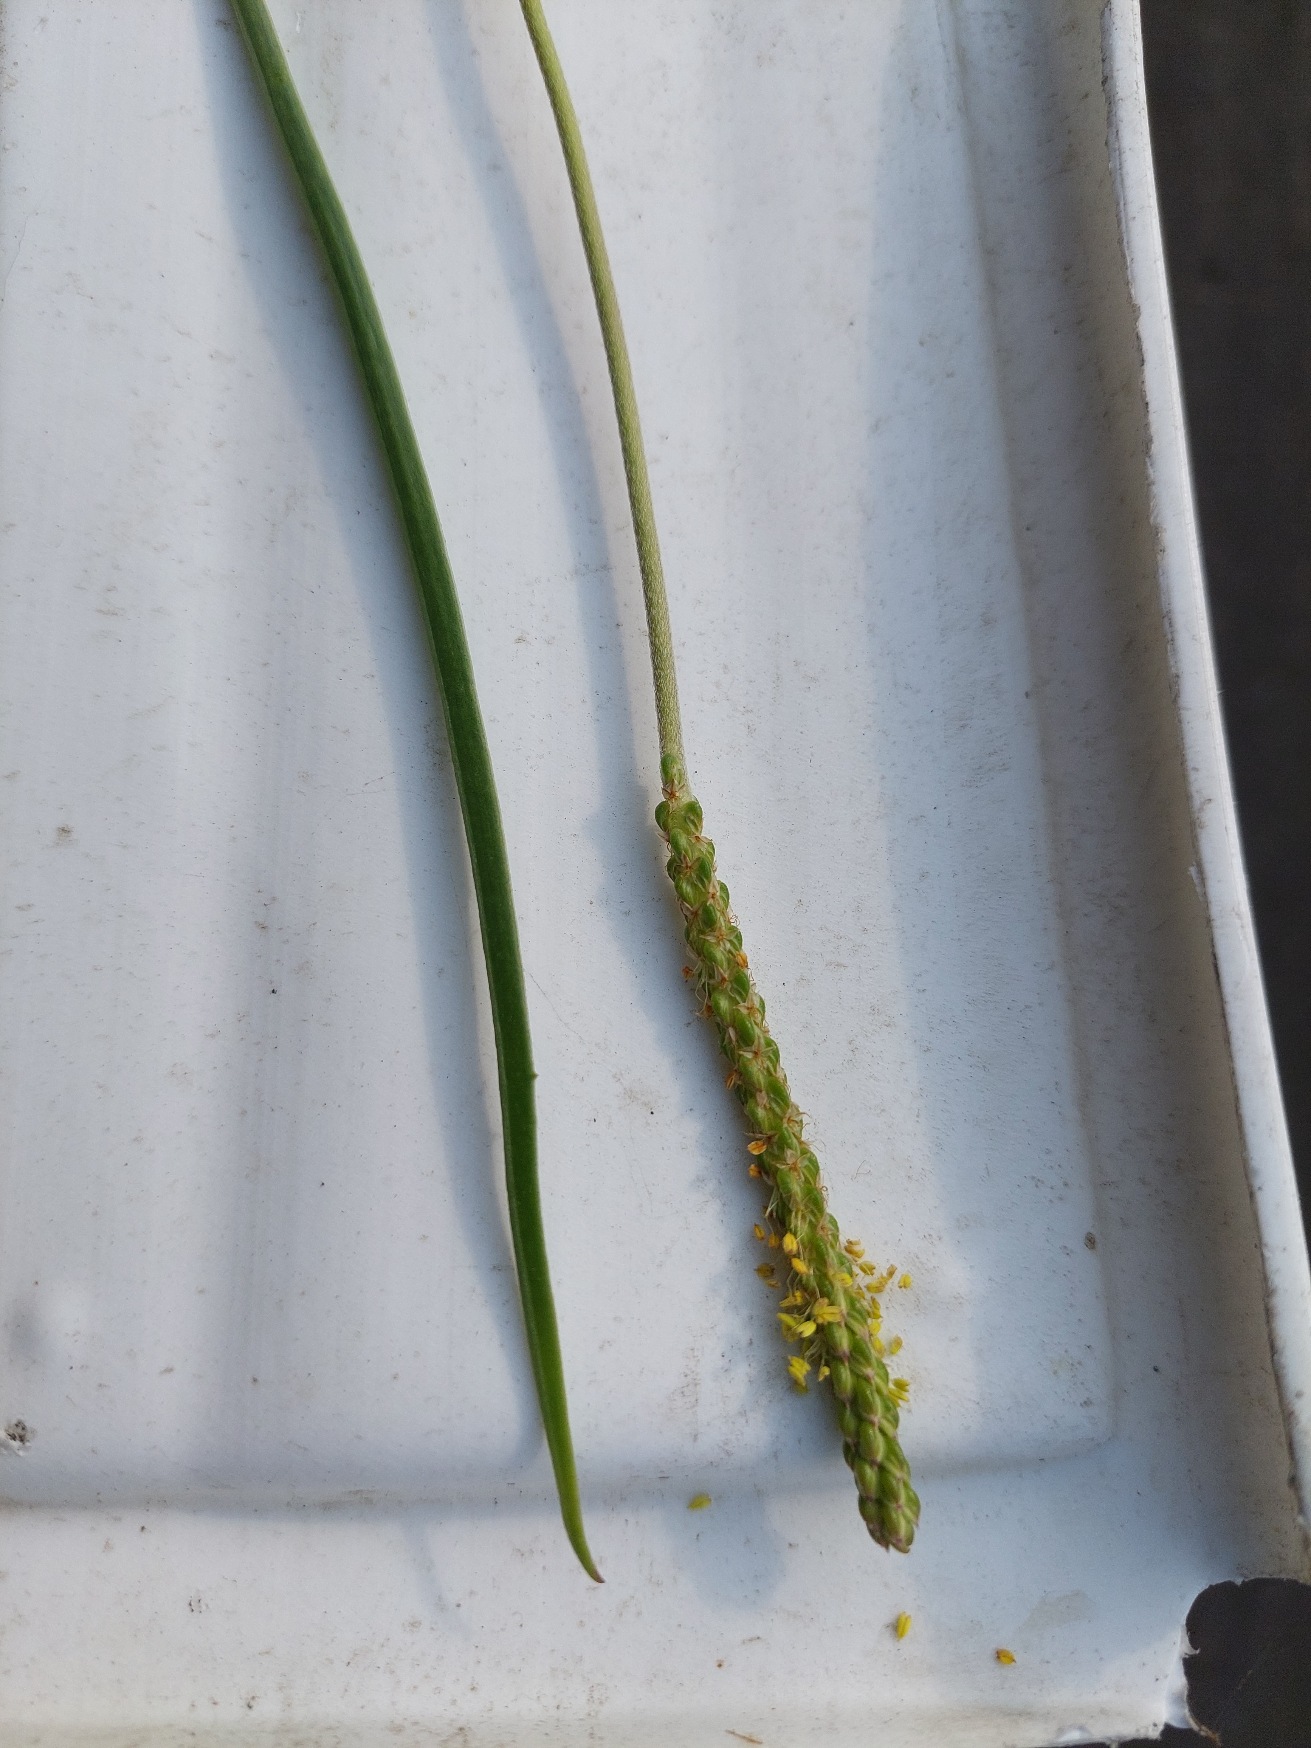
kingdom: Plantae
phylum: Tracheophyta
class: Magnoliopsida
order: Lamiales
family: Plantaginaceae
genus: Plantago
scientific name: Plantago maritima
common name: Strand-vejbred
